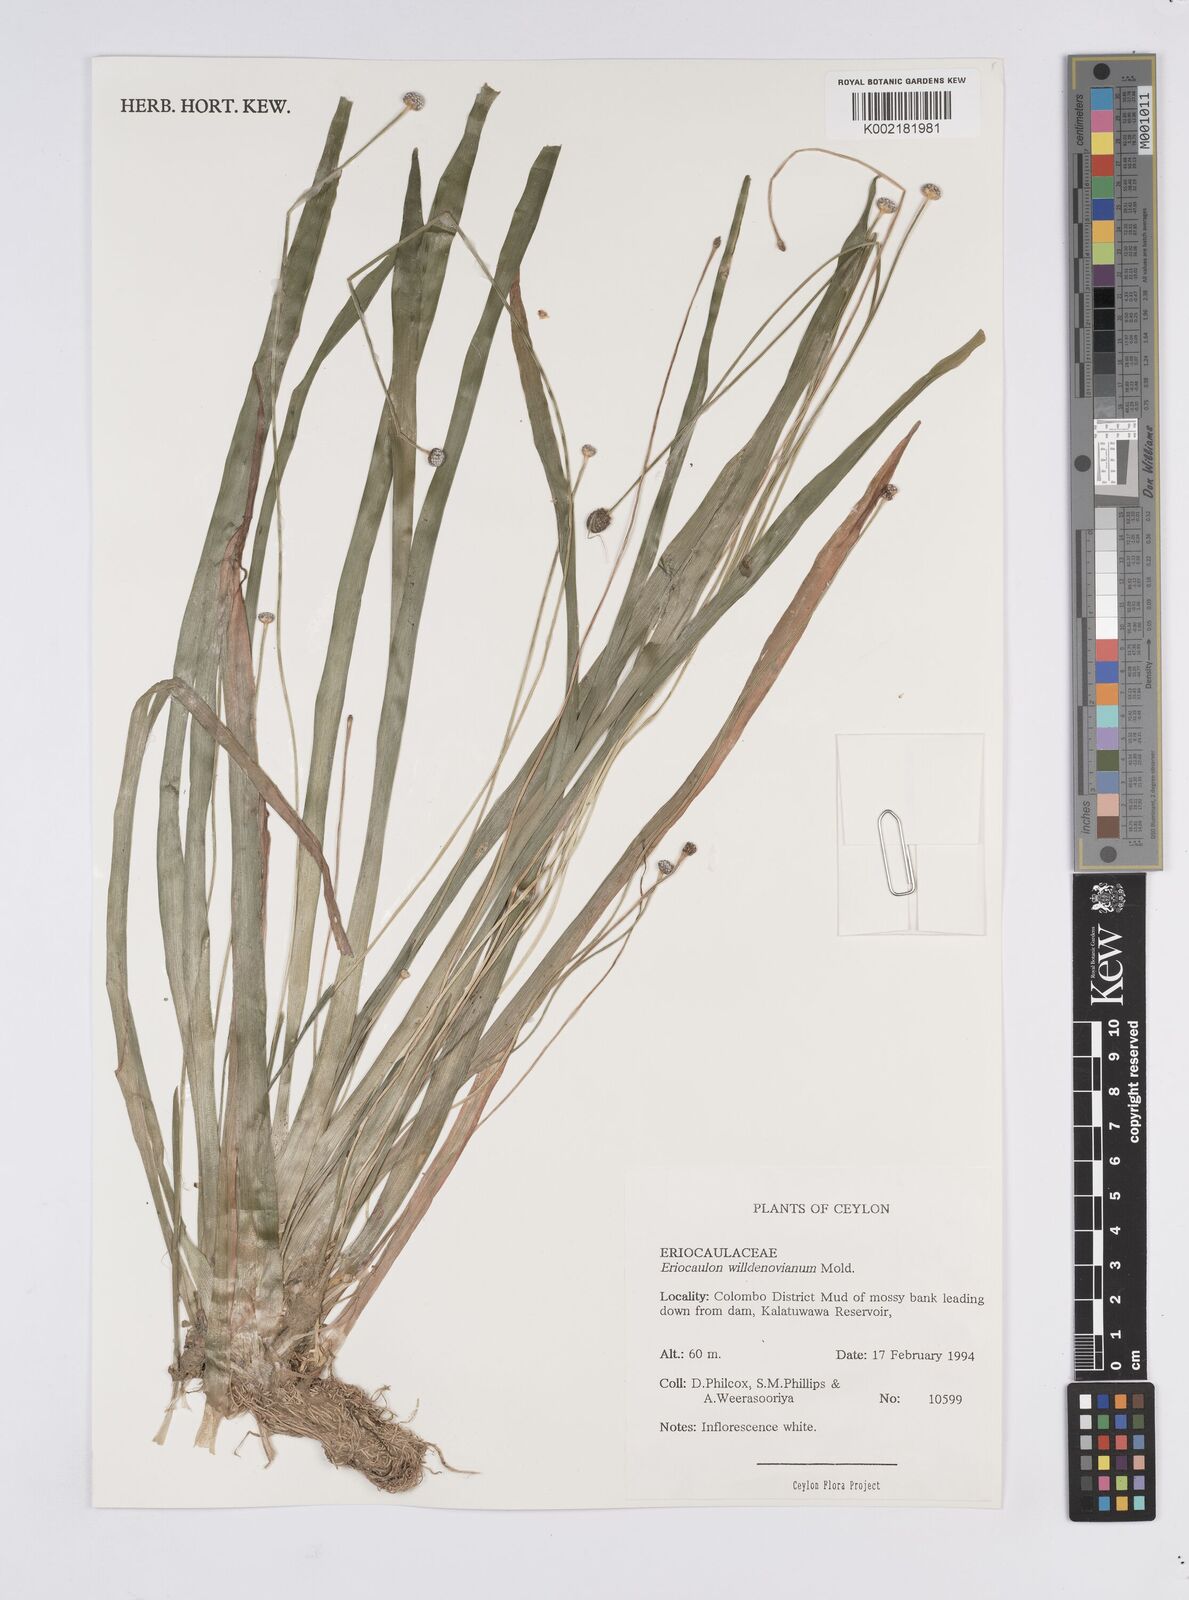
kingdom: Plantae
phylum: Tracheophyta
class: Liliopsida
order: Poales
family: Eriocaulaceae
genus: Eriocaulon
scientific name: Eriocaulon willdenovianum
